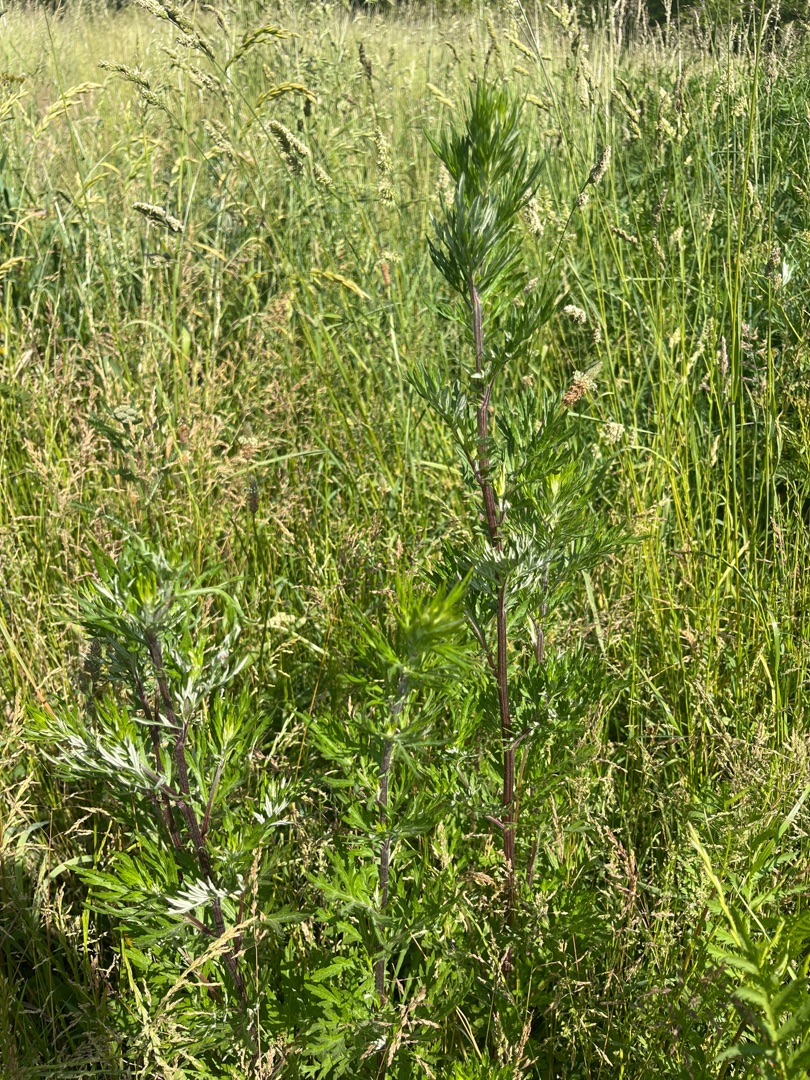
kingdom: Plantae
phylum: Tracheophyta
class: Magnoliopsida
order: Asterales
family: Asteraceae
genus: Artemisia
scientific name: Artemisia vulgaris
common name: Grå-bynke
